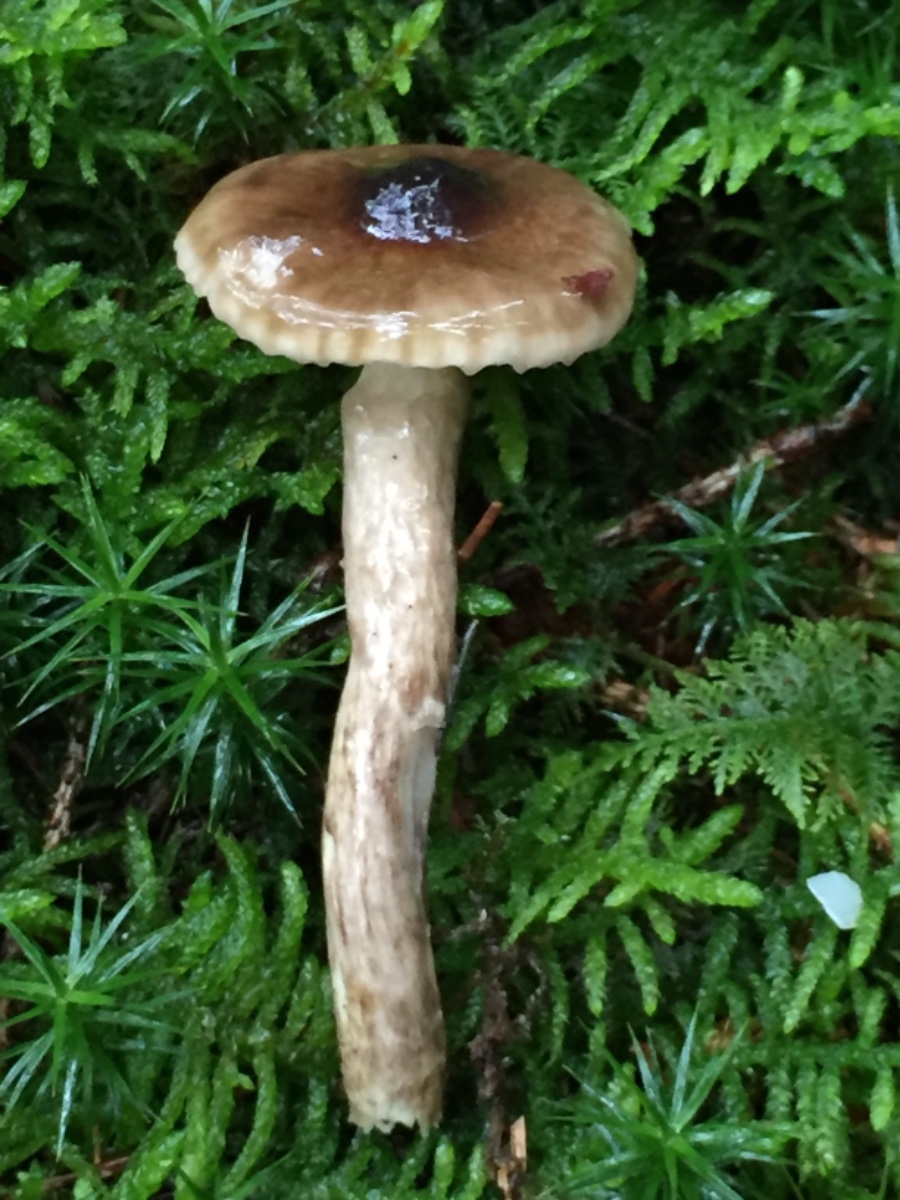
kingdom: Fungi
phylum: Basidiomycota
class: Agaricomycetes
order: Agaricales
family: Hygrophoraceae
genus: Hygrophorus
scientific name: Hygrophorus olivaceoalbus
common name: hvidbrun sneglehat
